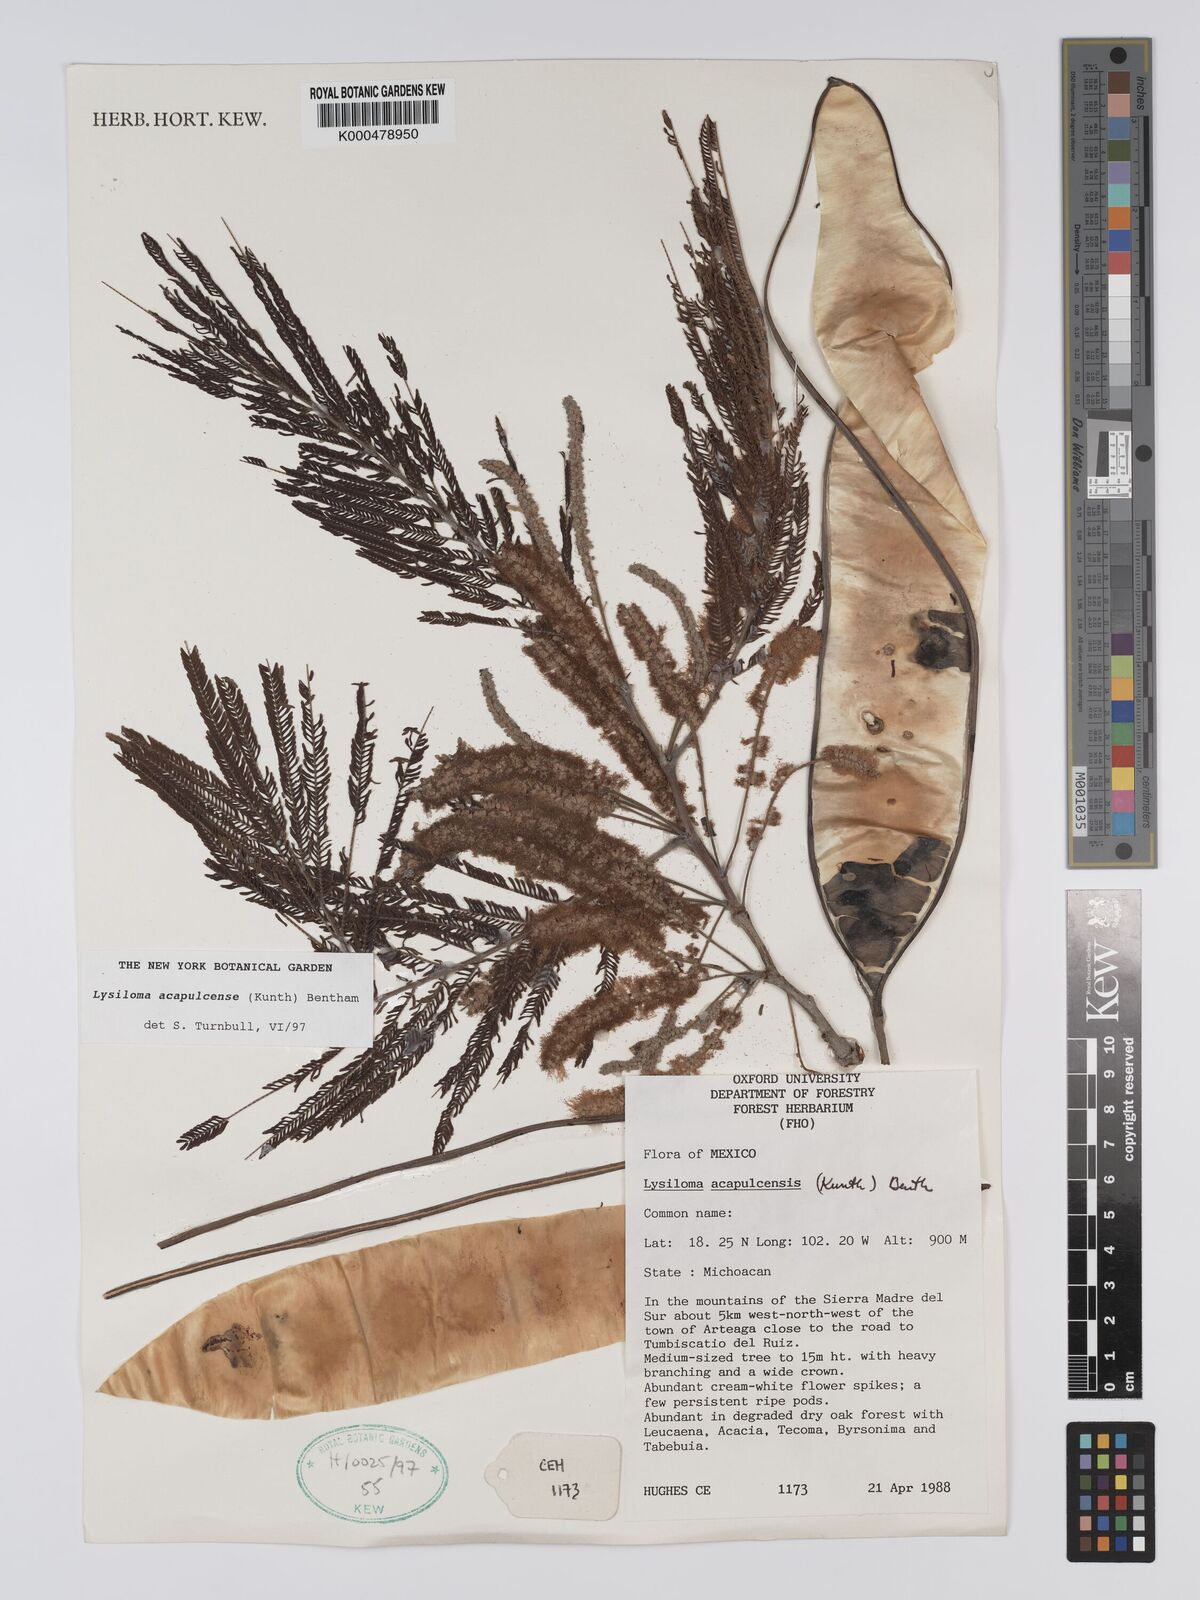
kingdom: Plantae
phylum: Tracheophyta
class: Magnoliopsida
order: Fabales
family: Fabaceae
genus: Lysiloma
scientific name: Lysiloma
